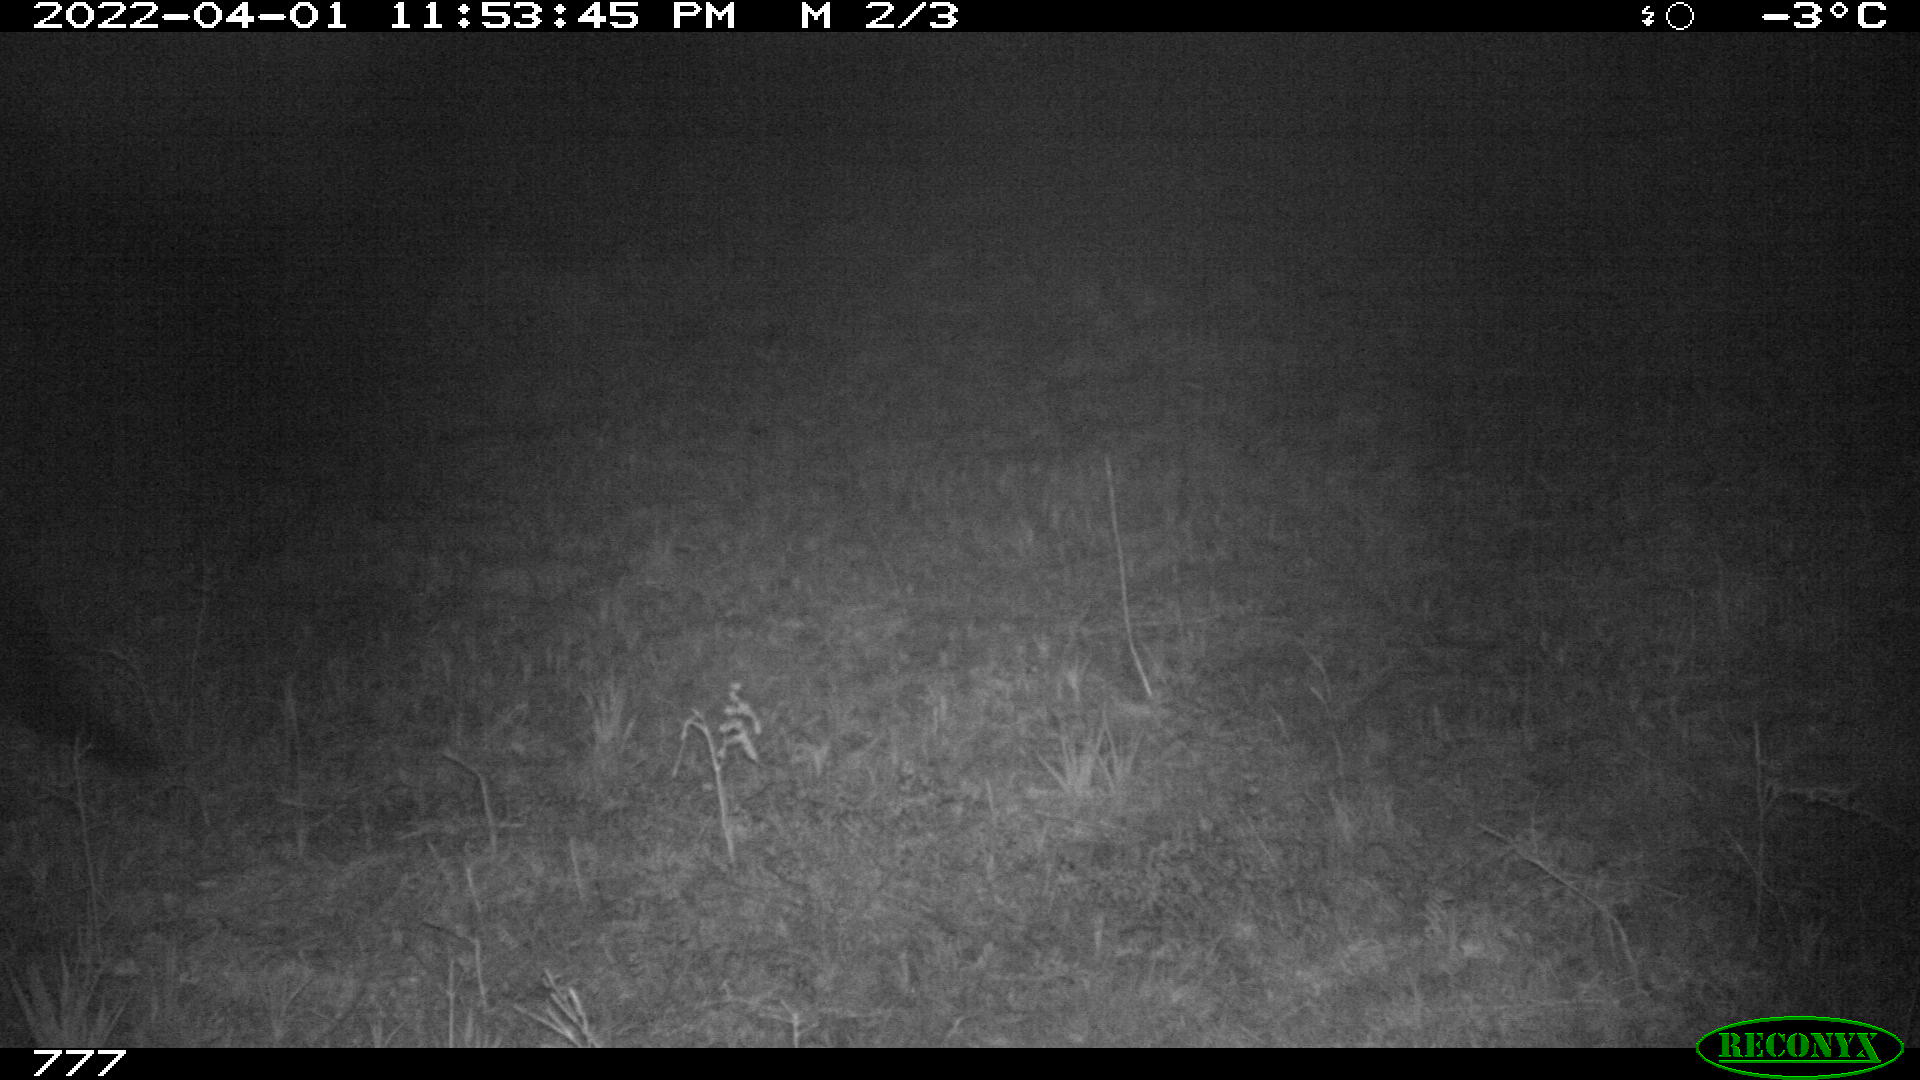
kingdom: Animalia
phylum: Chordata
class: Mammalia
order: Perissodactyla
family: Equidae
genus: Equus
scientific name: Equus caballus
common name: Horse
